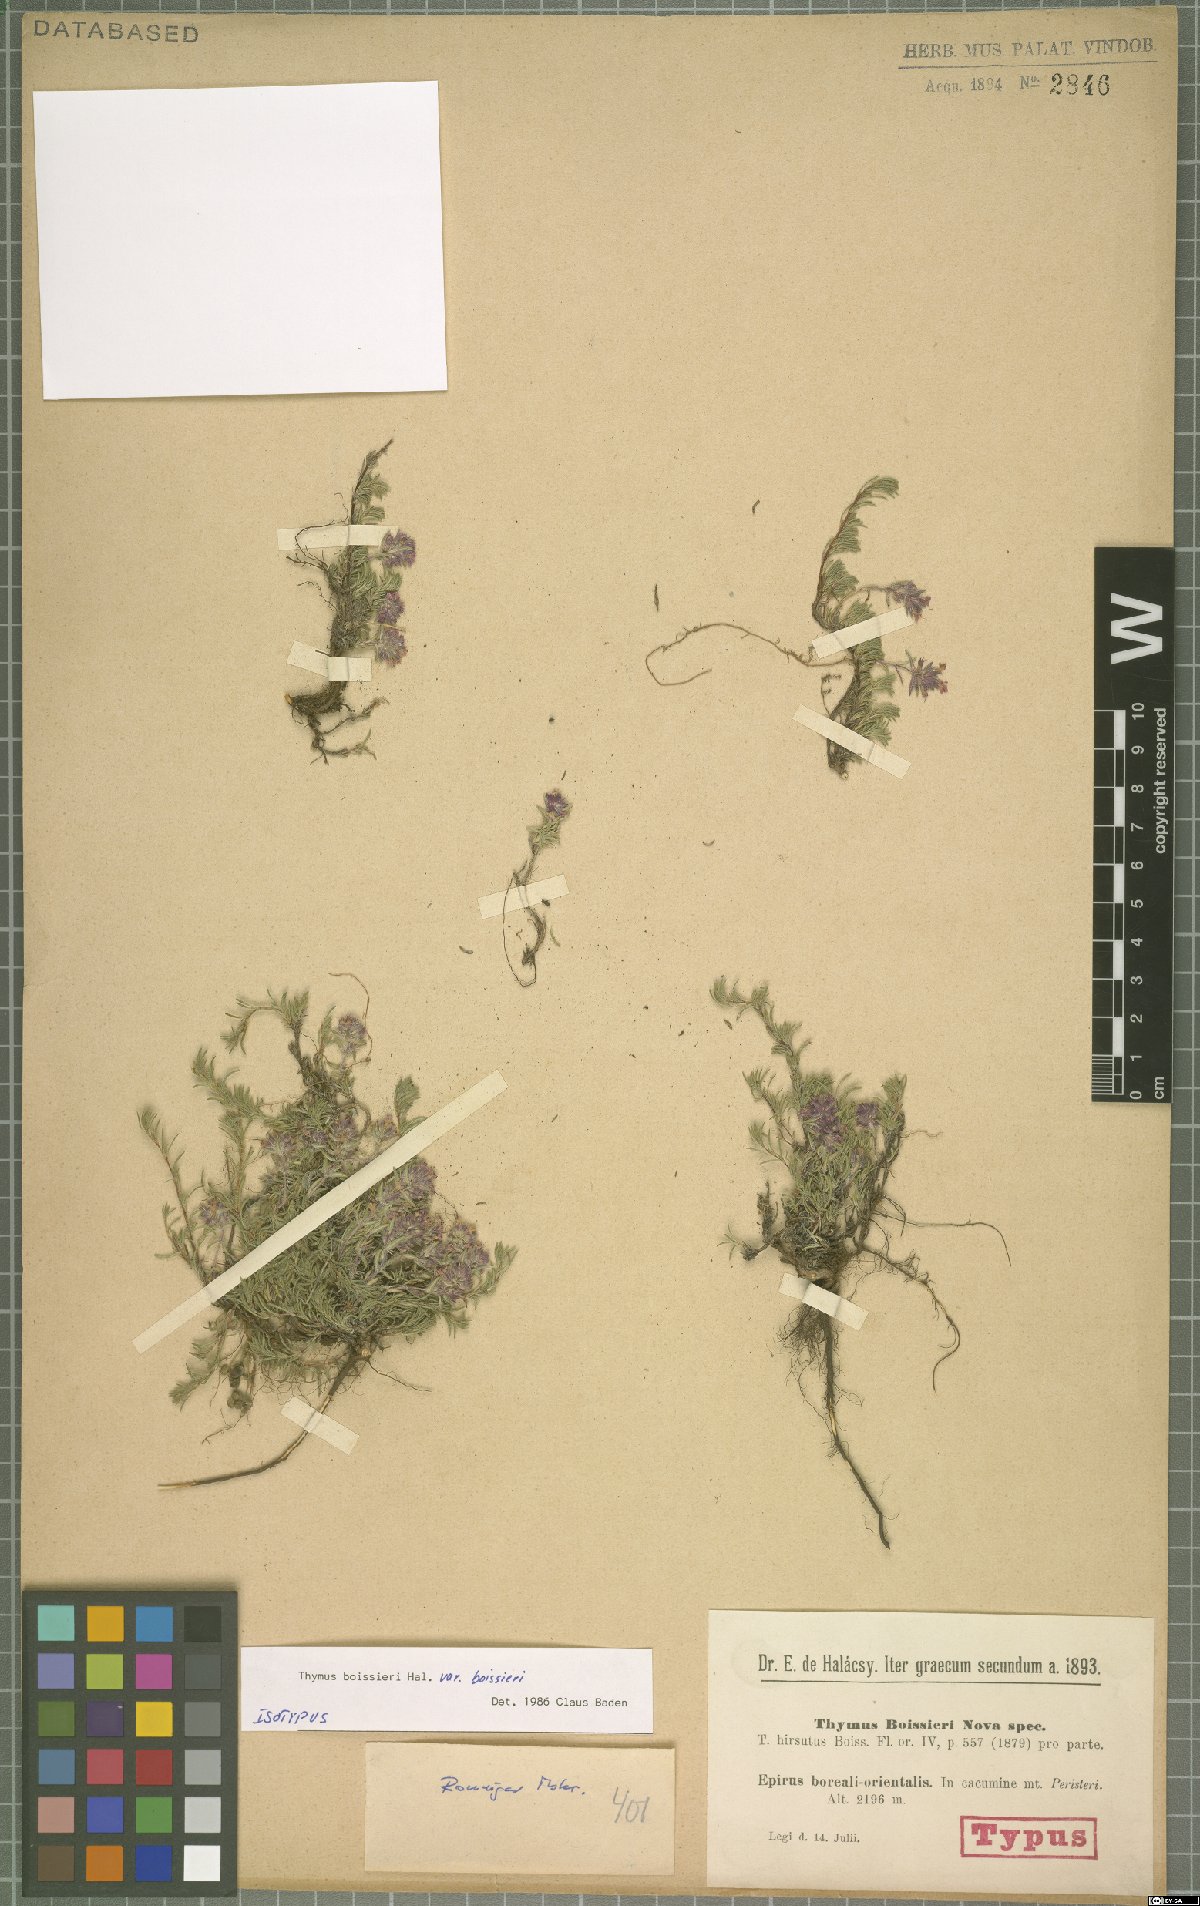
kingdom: Plantae
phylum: Tracheophyta
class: Magnoliopsida
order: Lamiales
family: Lamiaceae
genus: Thymus
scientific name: Thymus boissieri
